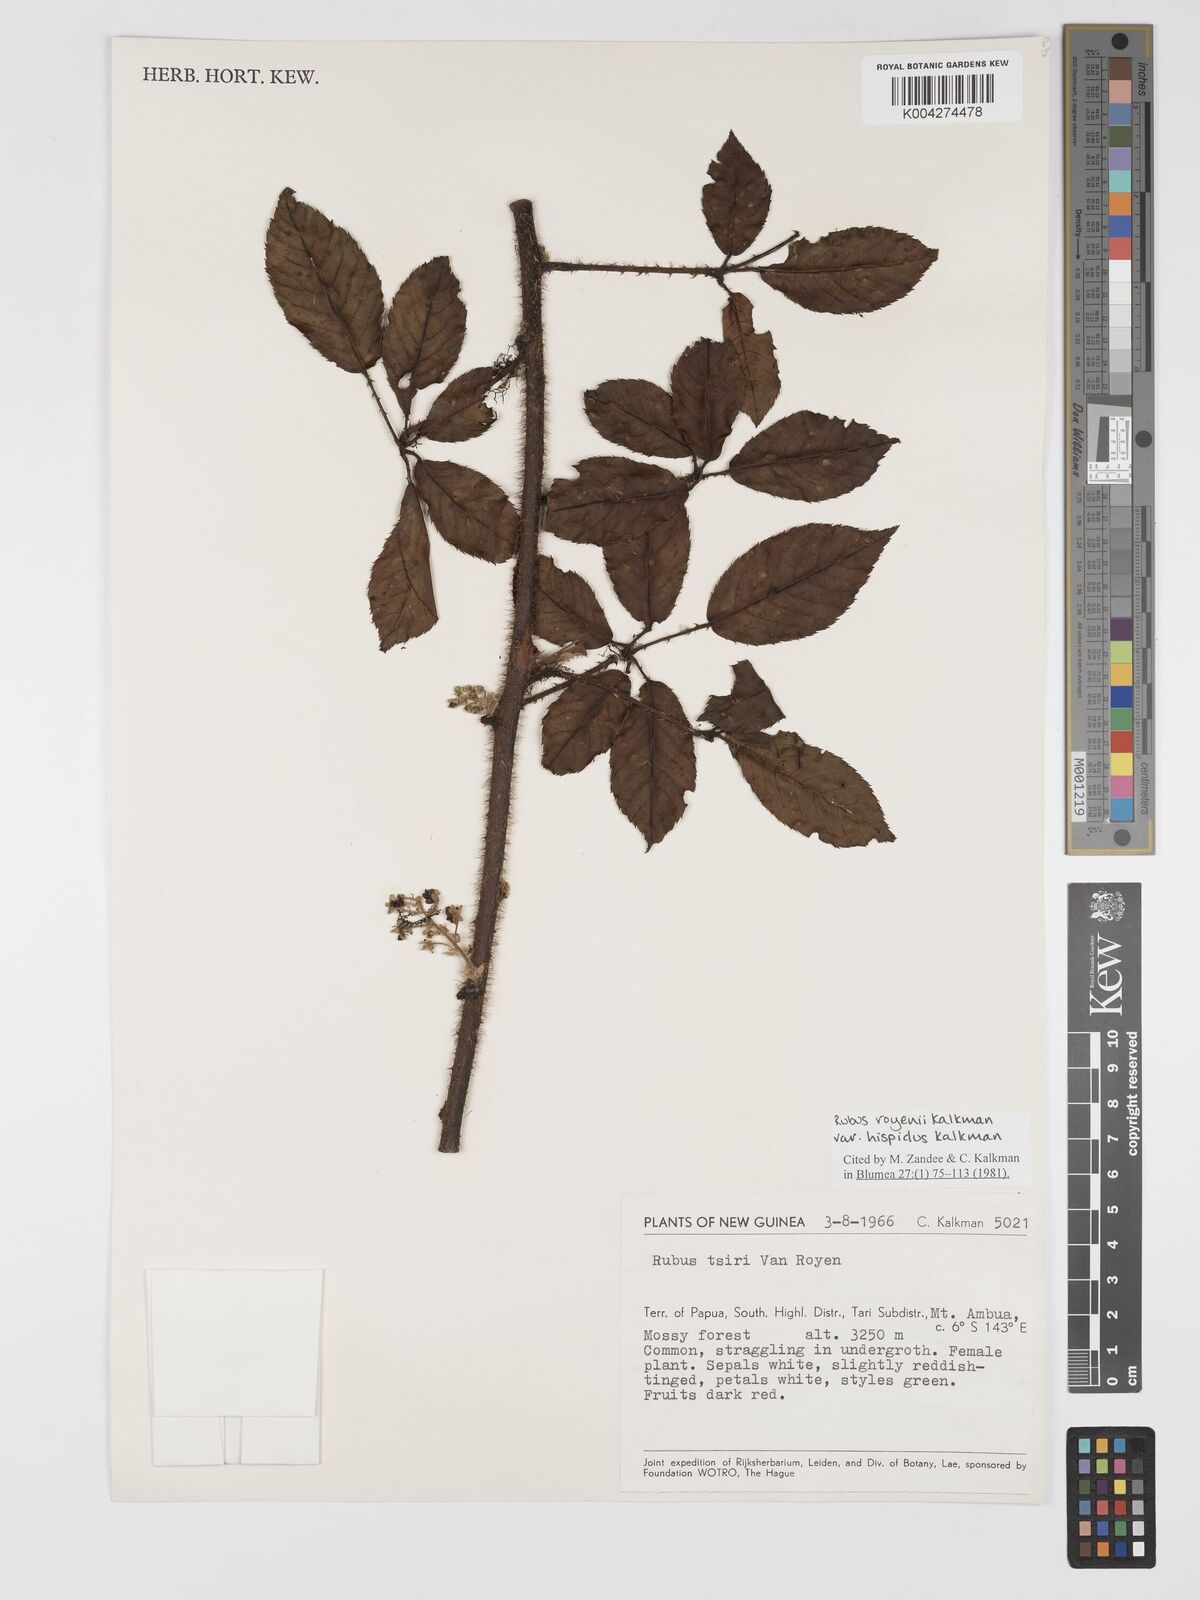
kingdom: Plantae
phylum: Tracheophyta
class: Magnoliopsida
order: Rosales
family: Rosaceae
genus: Rubus
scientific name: Rubus royenii
